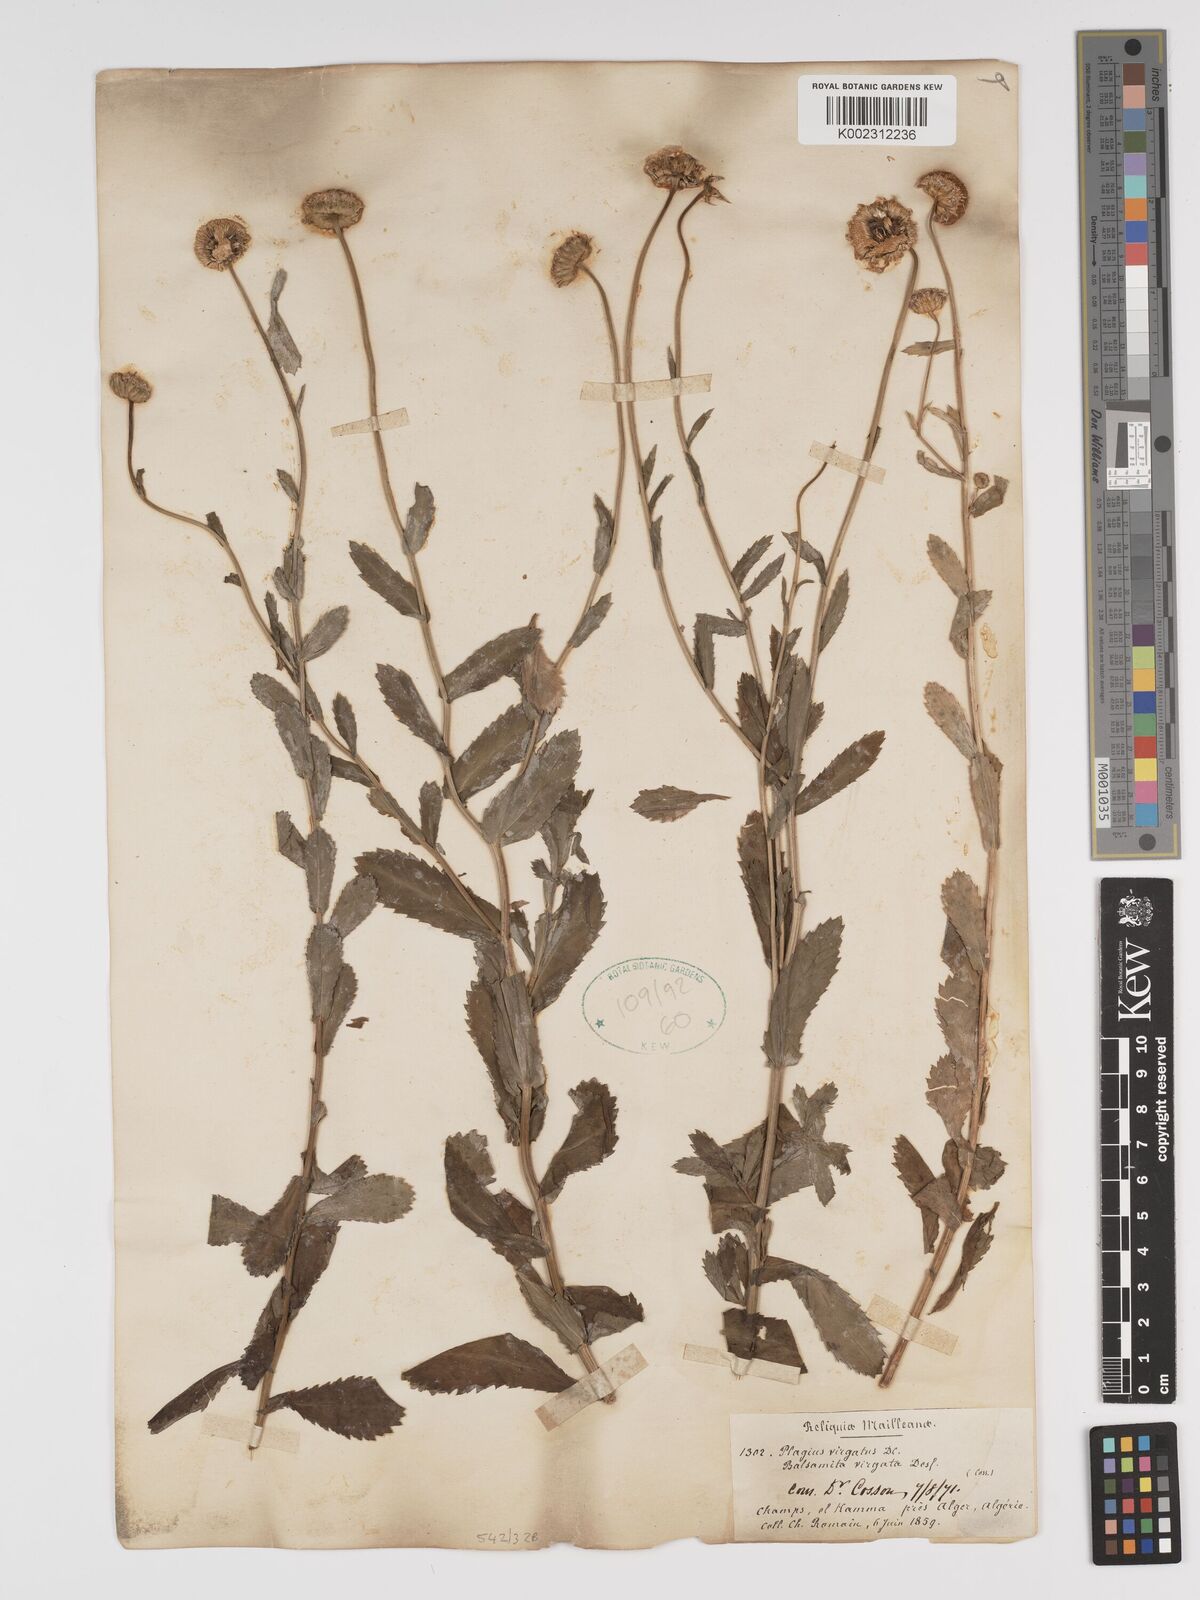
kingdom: Plantae
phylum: Tracheophyta
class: Magnoliopsida
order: Asterales
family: Asteraceae
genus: Tanacetum
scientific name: Tanacetum vulgare
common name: Common tansy
